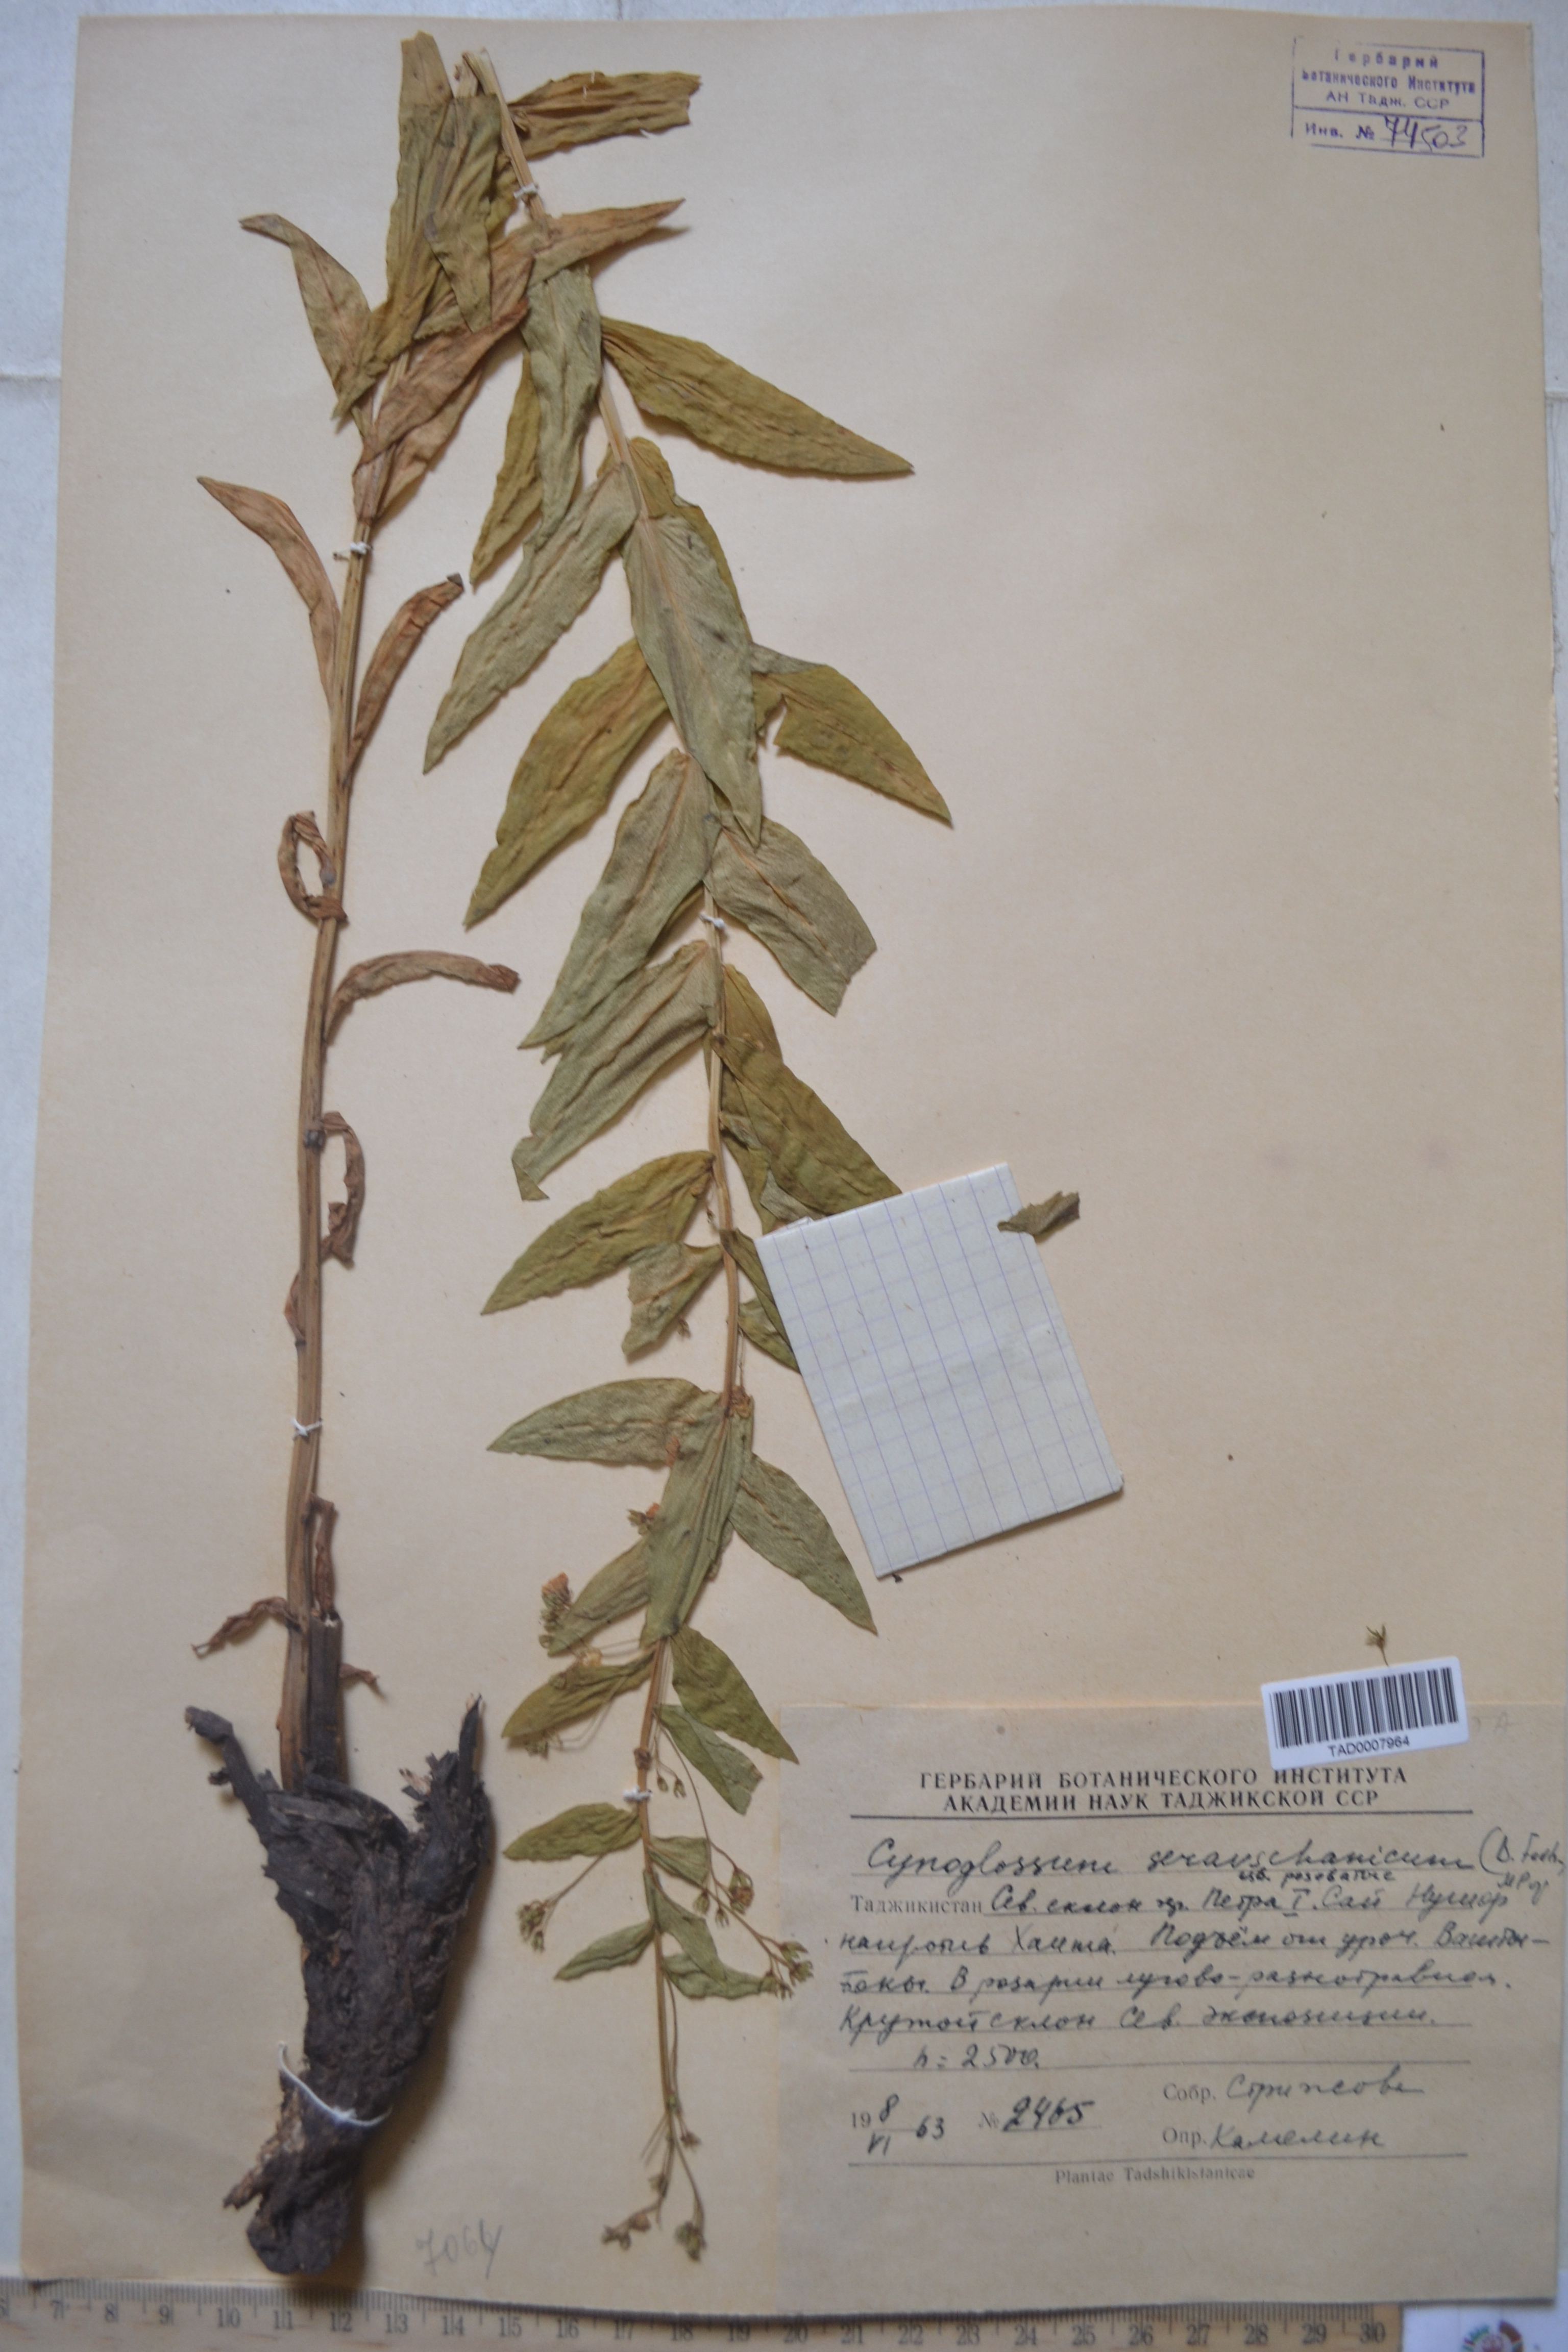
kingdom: Plantae
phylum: Tracheophyta
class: Magnoliopsida
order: Boraginales
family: Boraginaceae
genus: Cynoglossum
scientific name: Cynoglossum
